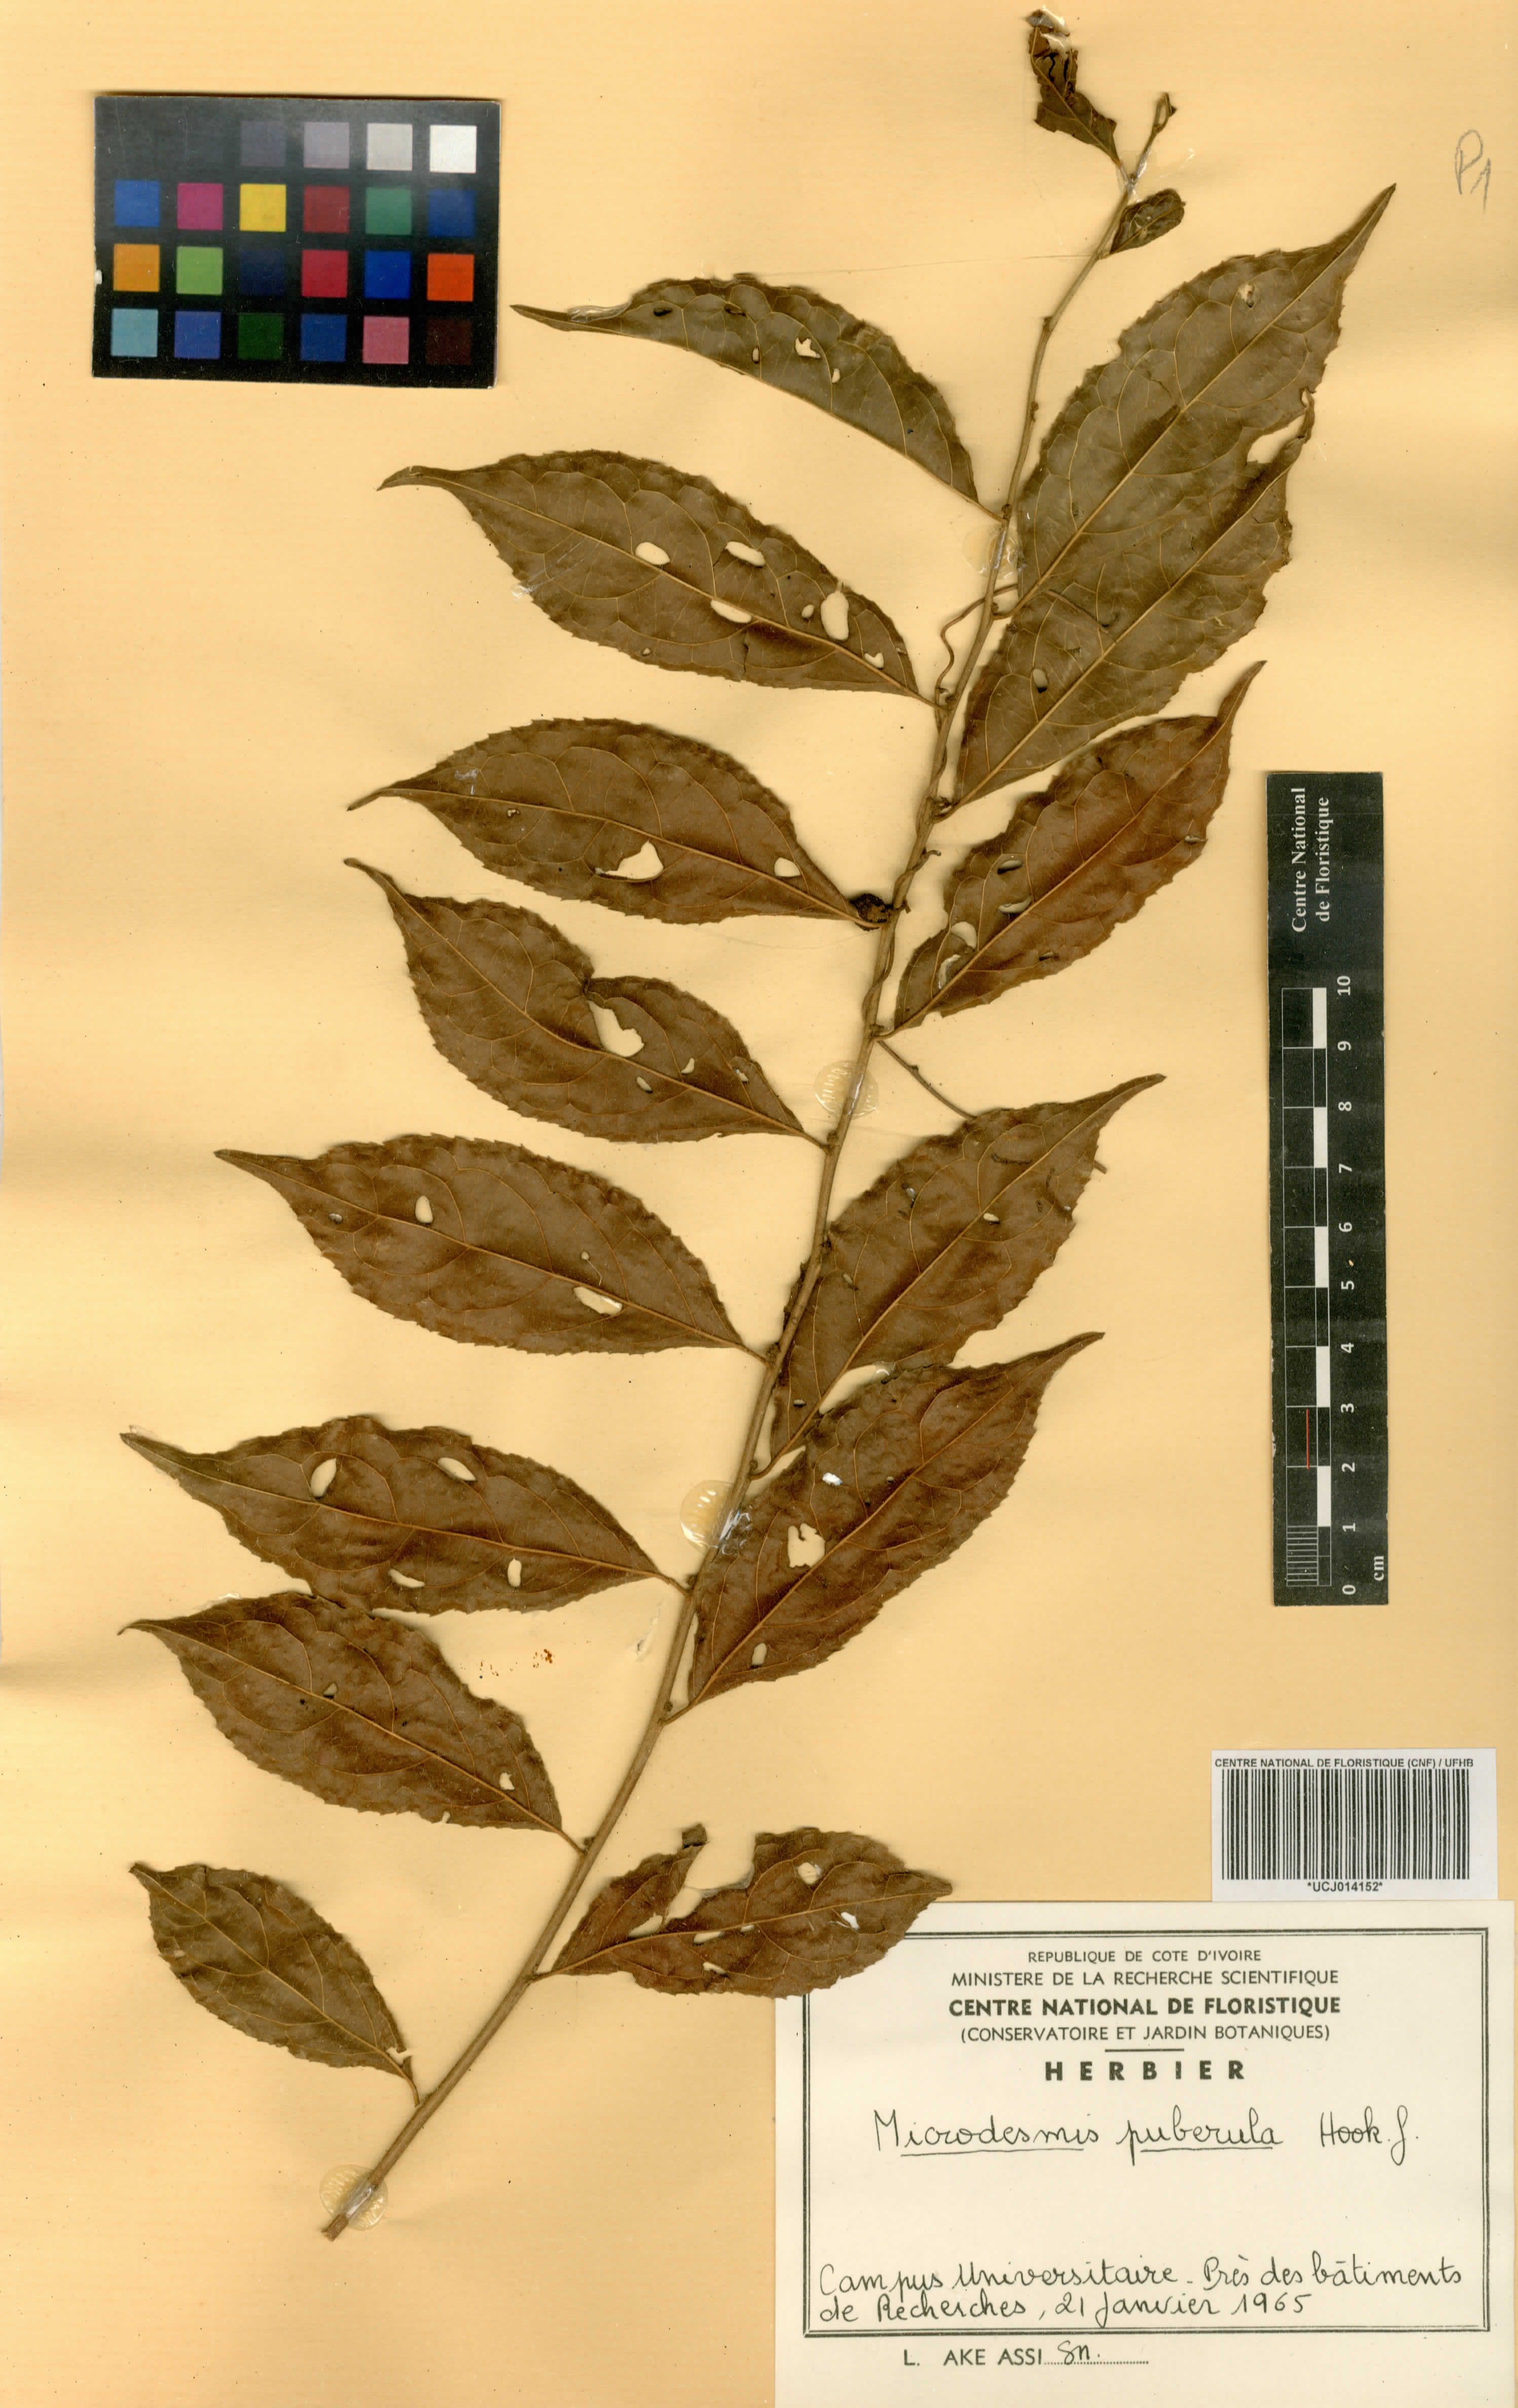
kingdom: Plantae
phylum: Tracheophyta
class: Magnoliopsida
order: Malpighiales
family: Pandaceae
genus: Microdesmis
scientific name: Microdesmis puberula
